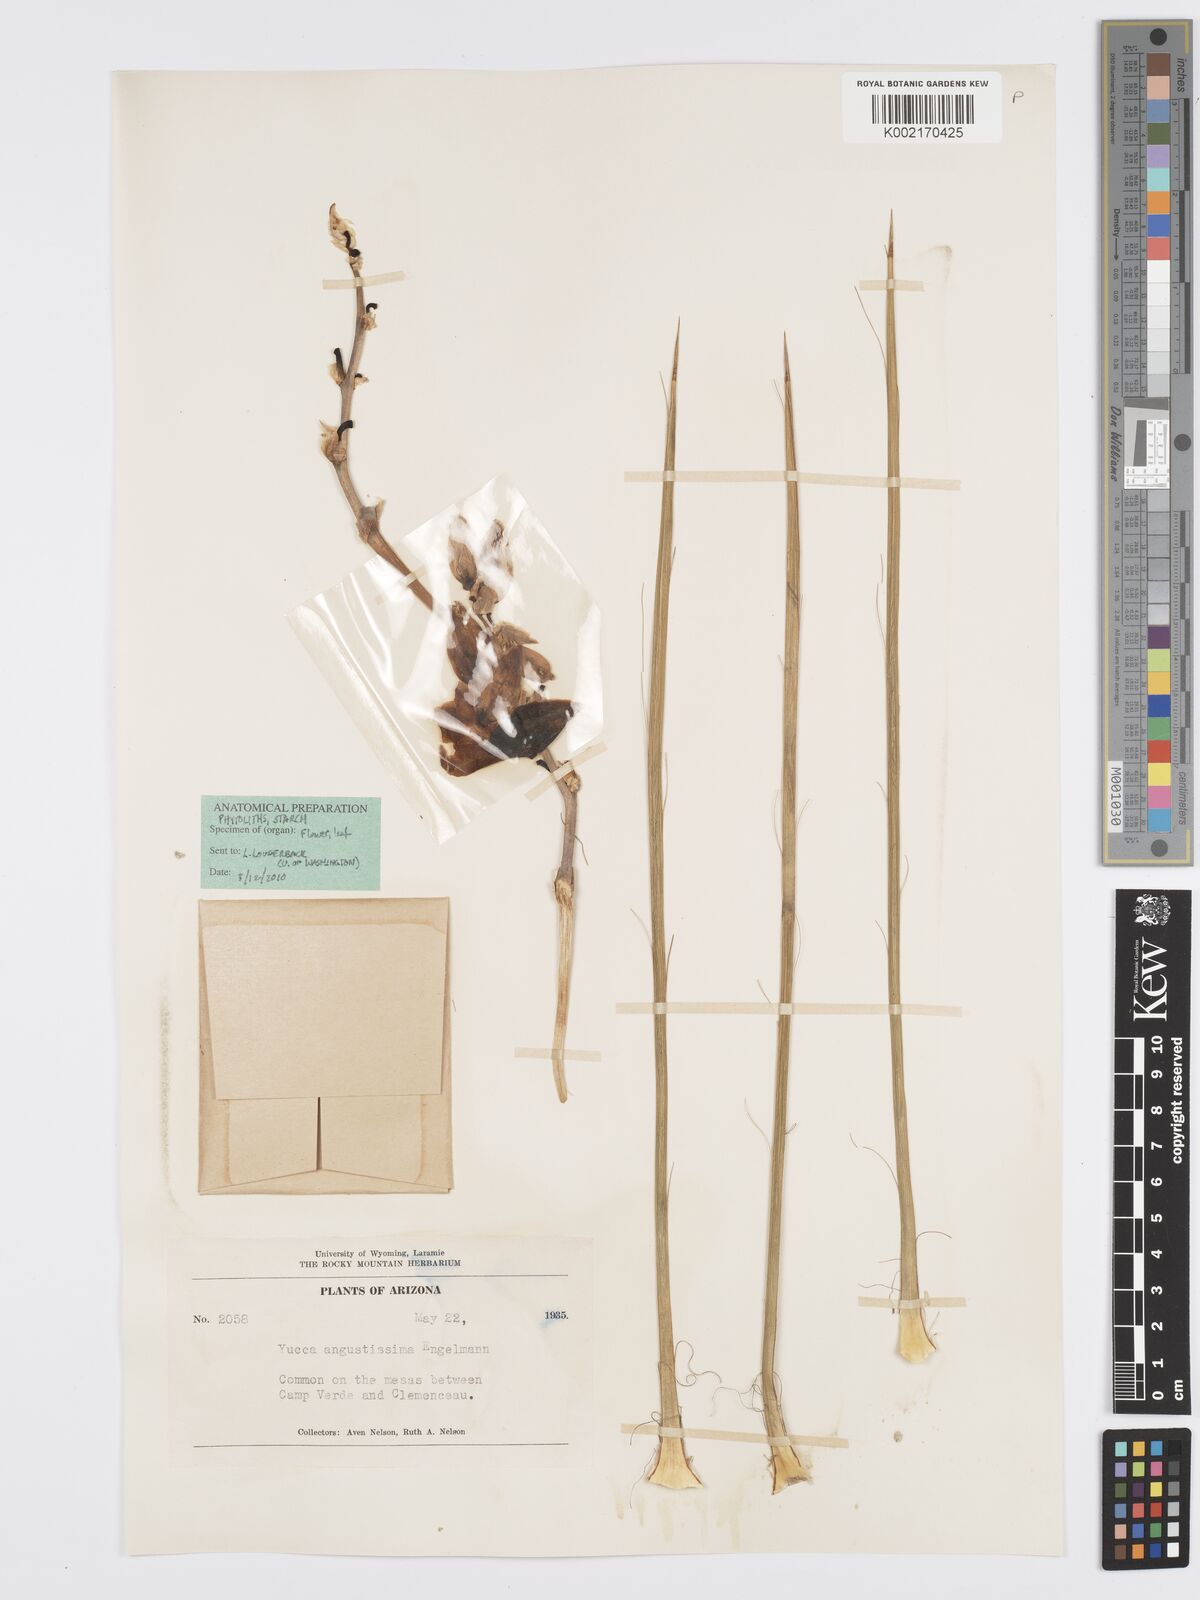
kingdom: Plantae
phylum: Tracheophyta
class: Liliopsida
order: Asparagales
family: Asparagaceae
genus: Yucca
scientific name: Yucca angustissima
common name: Narrowleaf yucca
